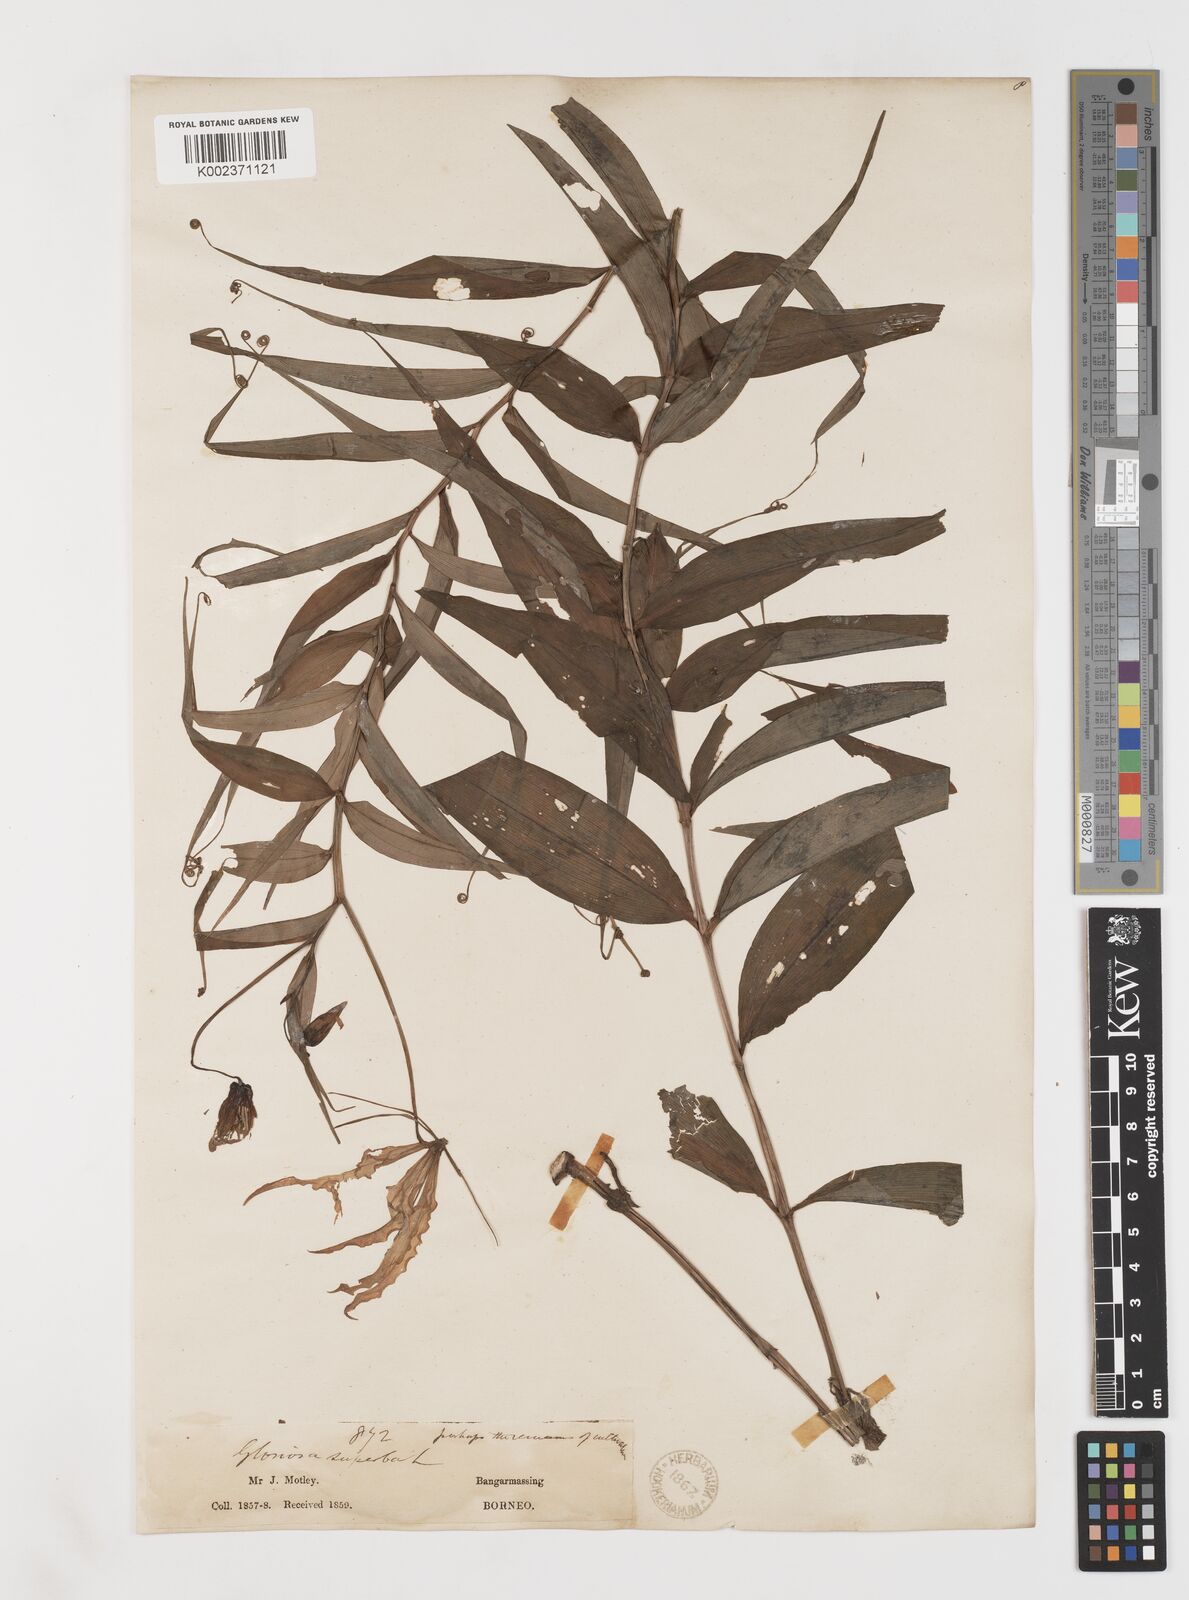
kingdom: Plantae
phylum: Tracheophyta
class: Liliopsida
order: Liliales
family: Colchicaceae
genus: Gloriosa
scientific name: Gloriosa superba
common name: Flame lily
